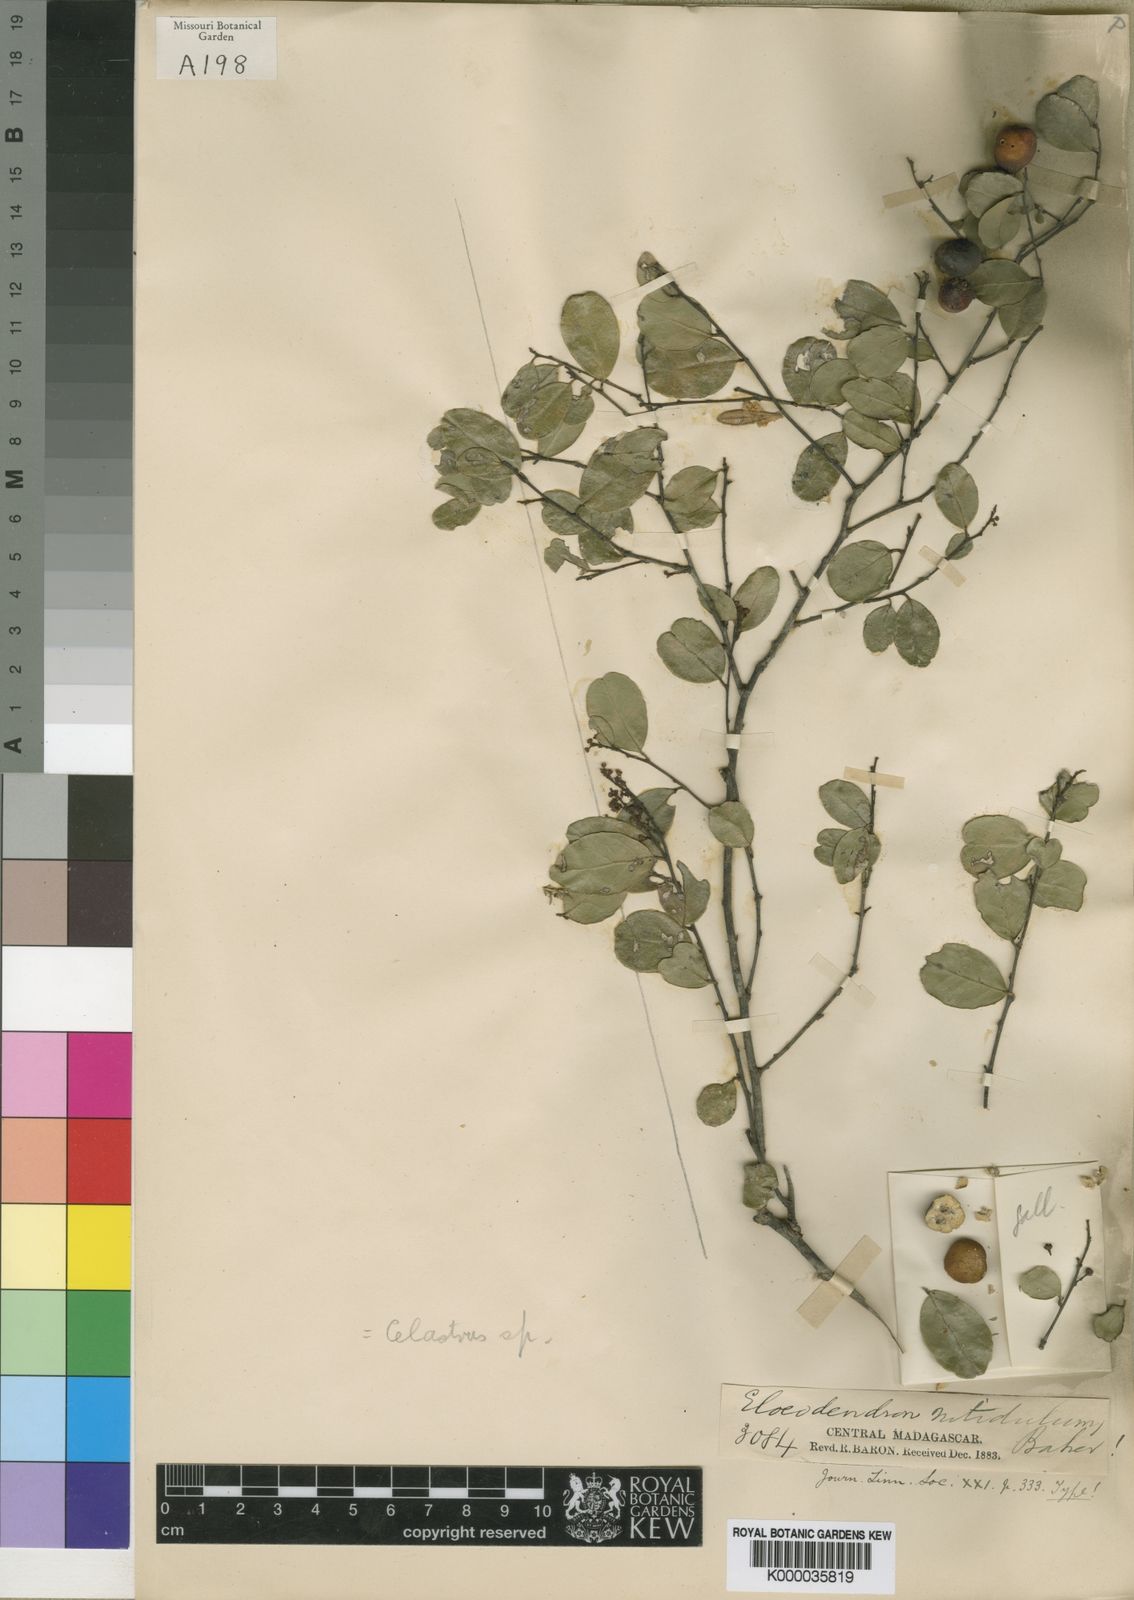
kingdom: Plantae
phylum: Tracheophyta
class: Magnoliopsida
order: Celastrales
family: Celastraceae
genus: Celastrus
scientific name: Celastrus
